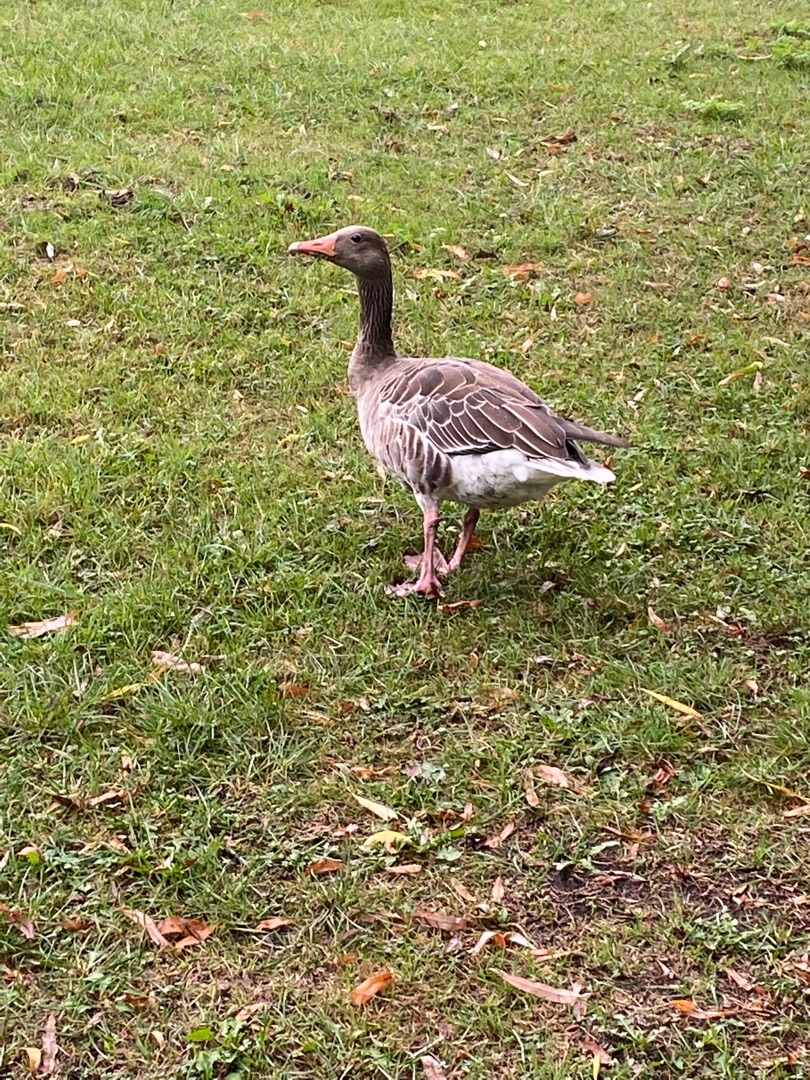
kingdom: Animalia
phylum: Chordata
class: Aves
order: Anseriformes
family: Anatidae
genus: Anser
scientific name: Anser anser
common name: Grågås
